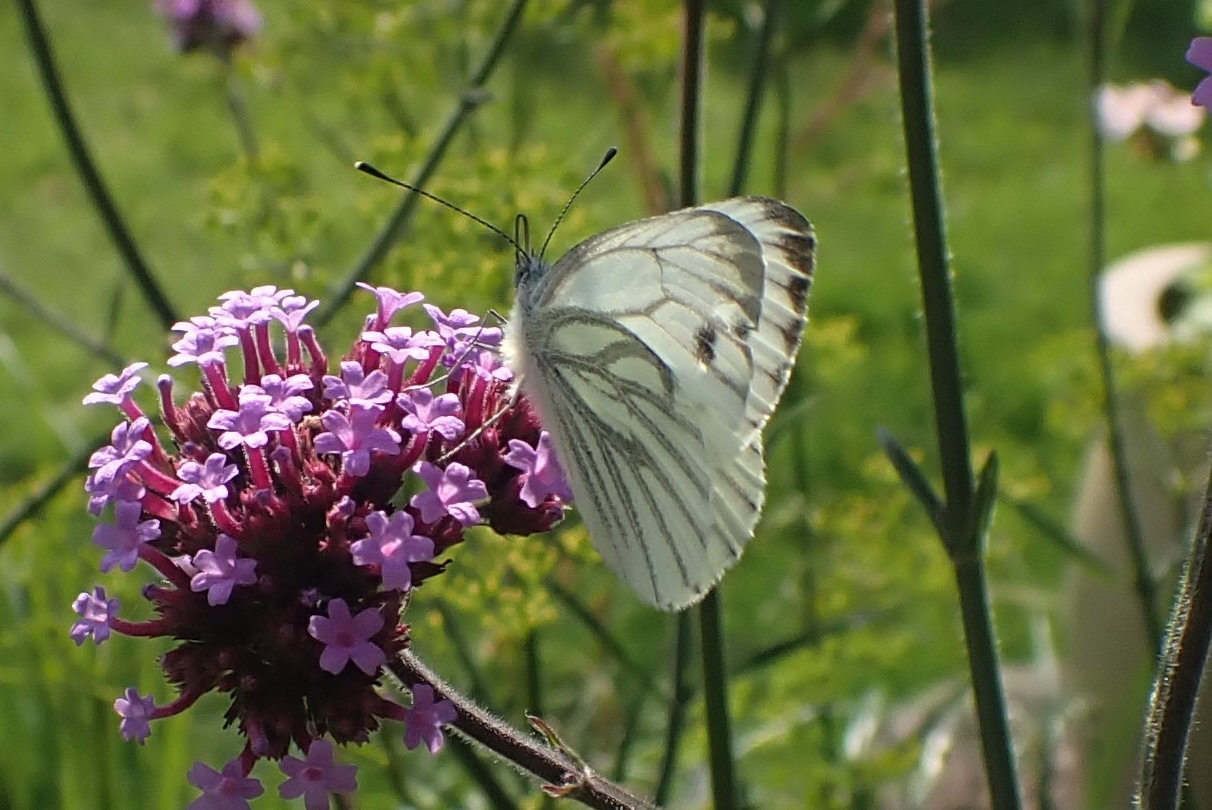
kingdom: Animalia
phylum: Arthropoda
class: Insecta
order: Lepidoptera
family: Pieridae
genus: Pieris
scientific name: Pieris napi
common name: Grønåret kålsommerfugl
